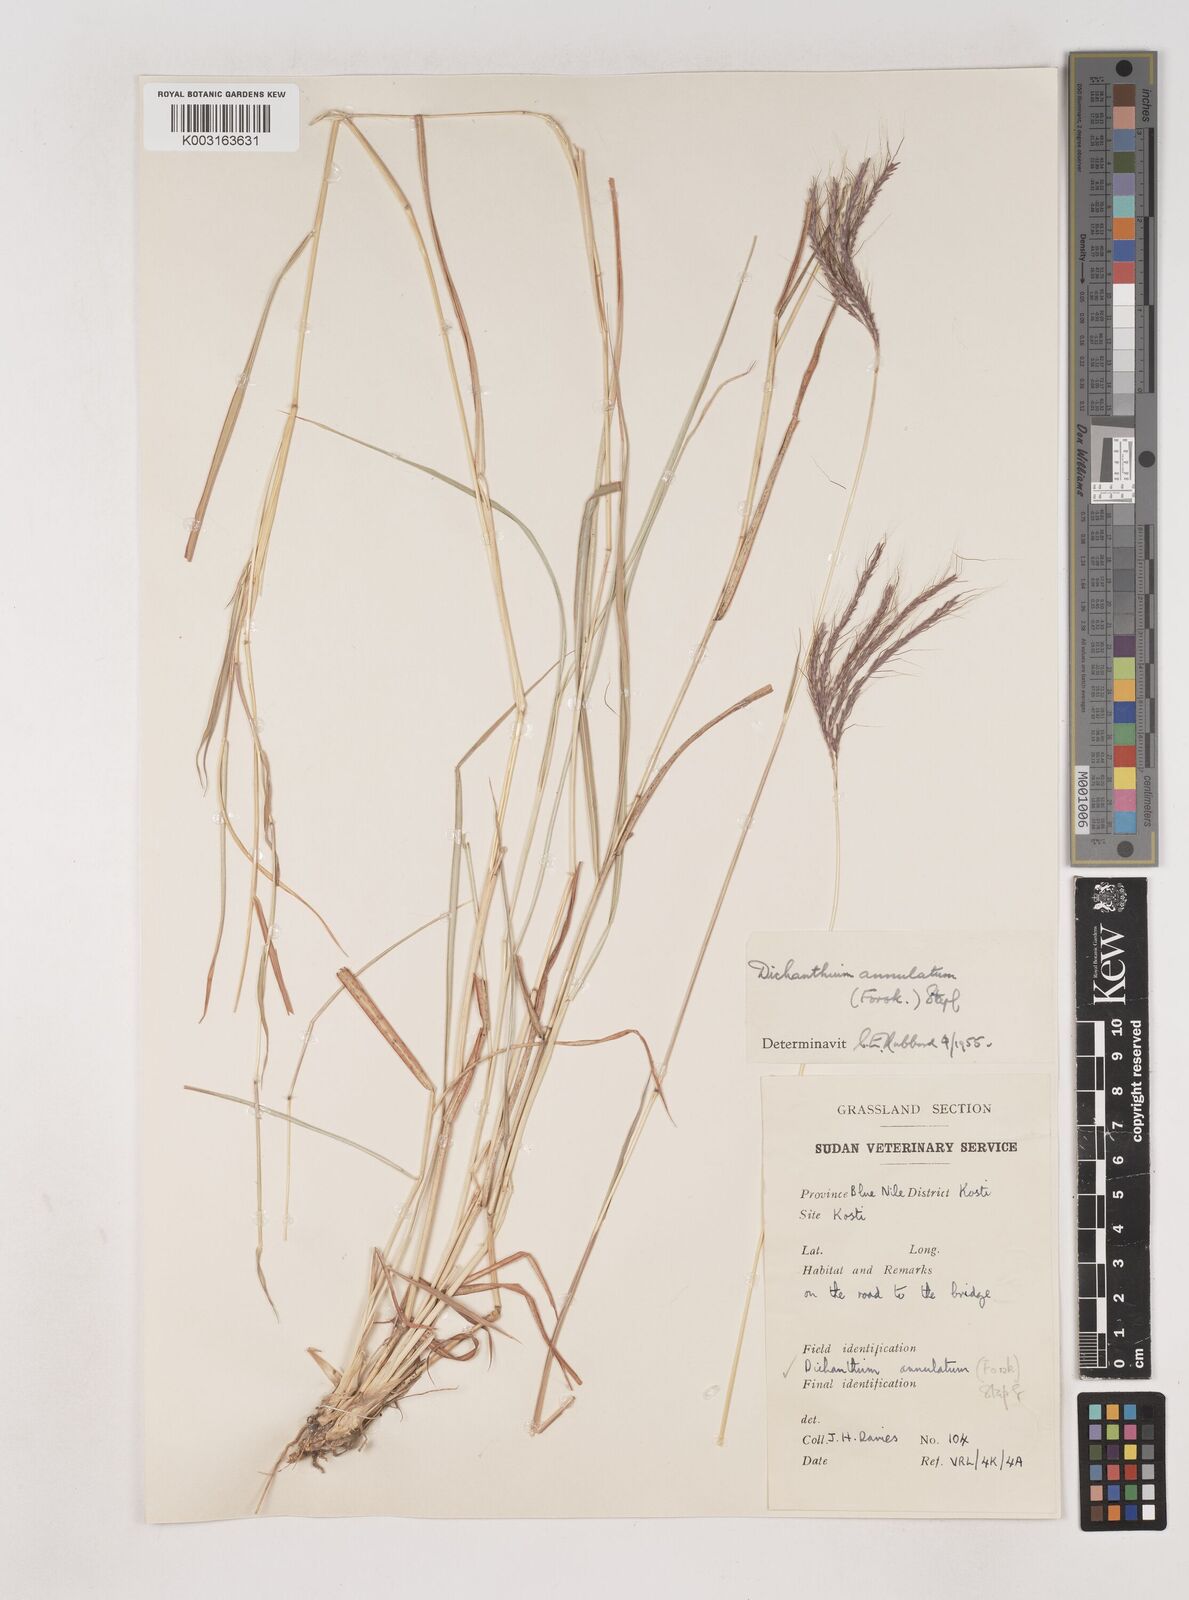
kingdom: Plantae
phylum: Tracheophyta
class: Liliopsida
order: Poales
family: Poaceae
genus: Dichanthium
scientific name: Dichanthium annulatum
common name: Kleberg's bluestem
